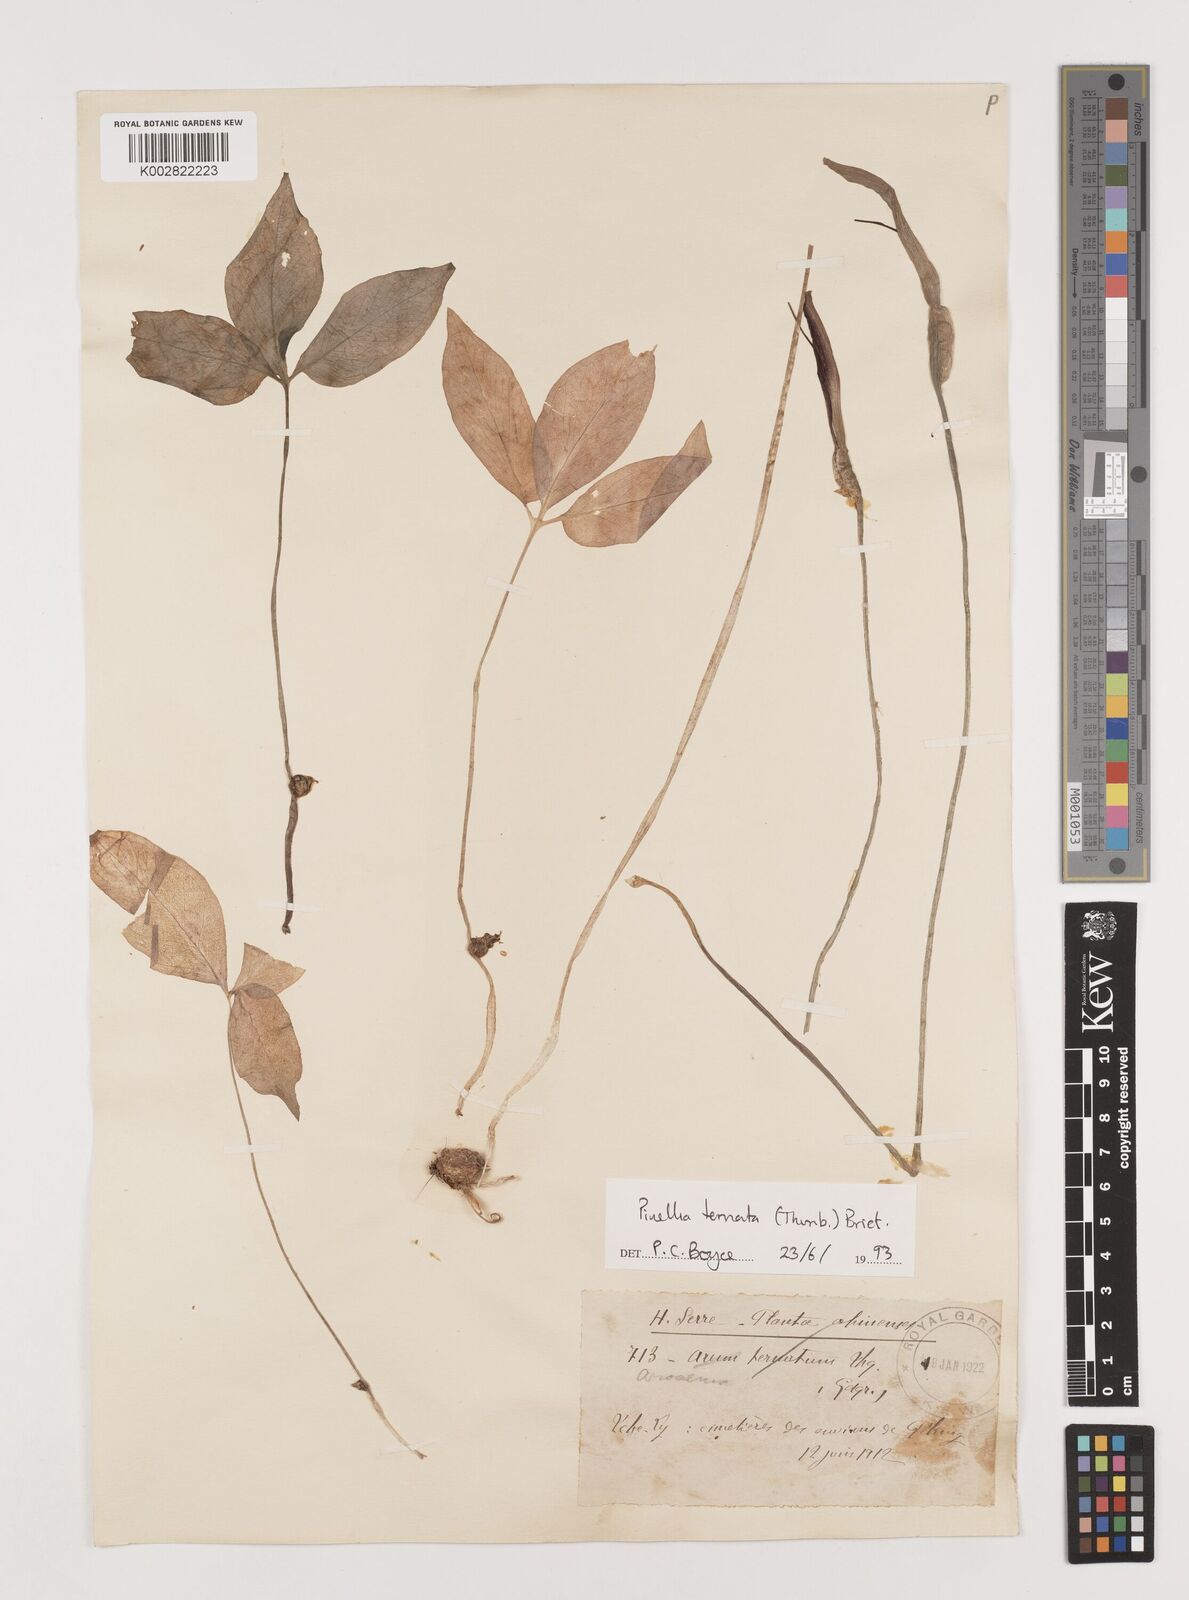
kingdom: Plantae
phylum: Tracheophyta
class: Liliopsida
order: Alismatales
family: Araceae
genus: Pinellia
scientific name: Pinellia ternata
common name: Pinellia
